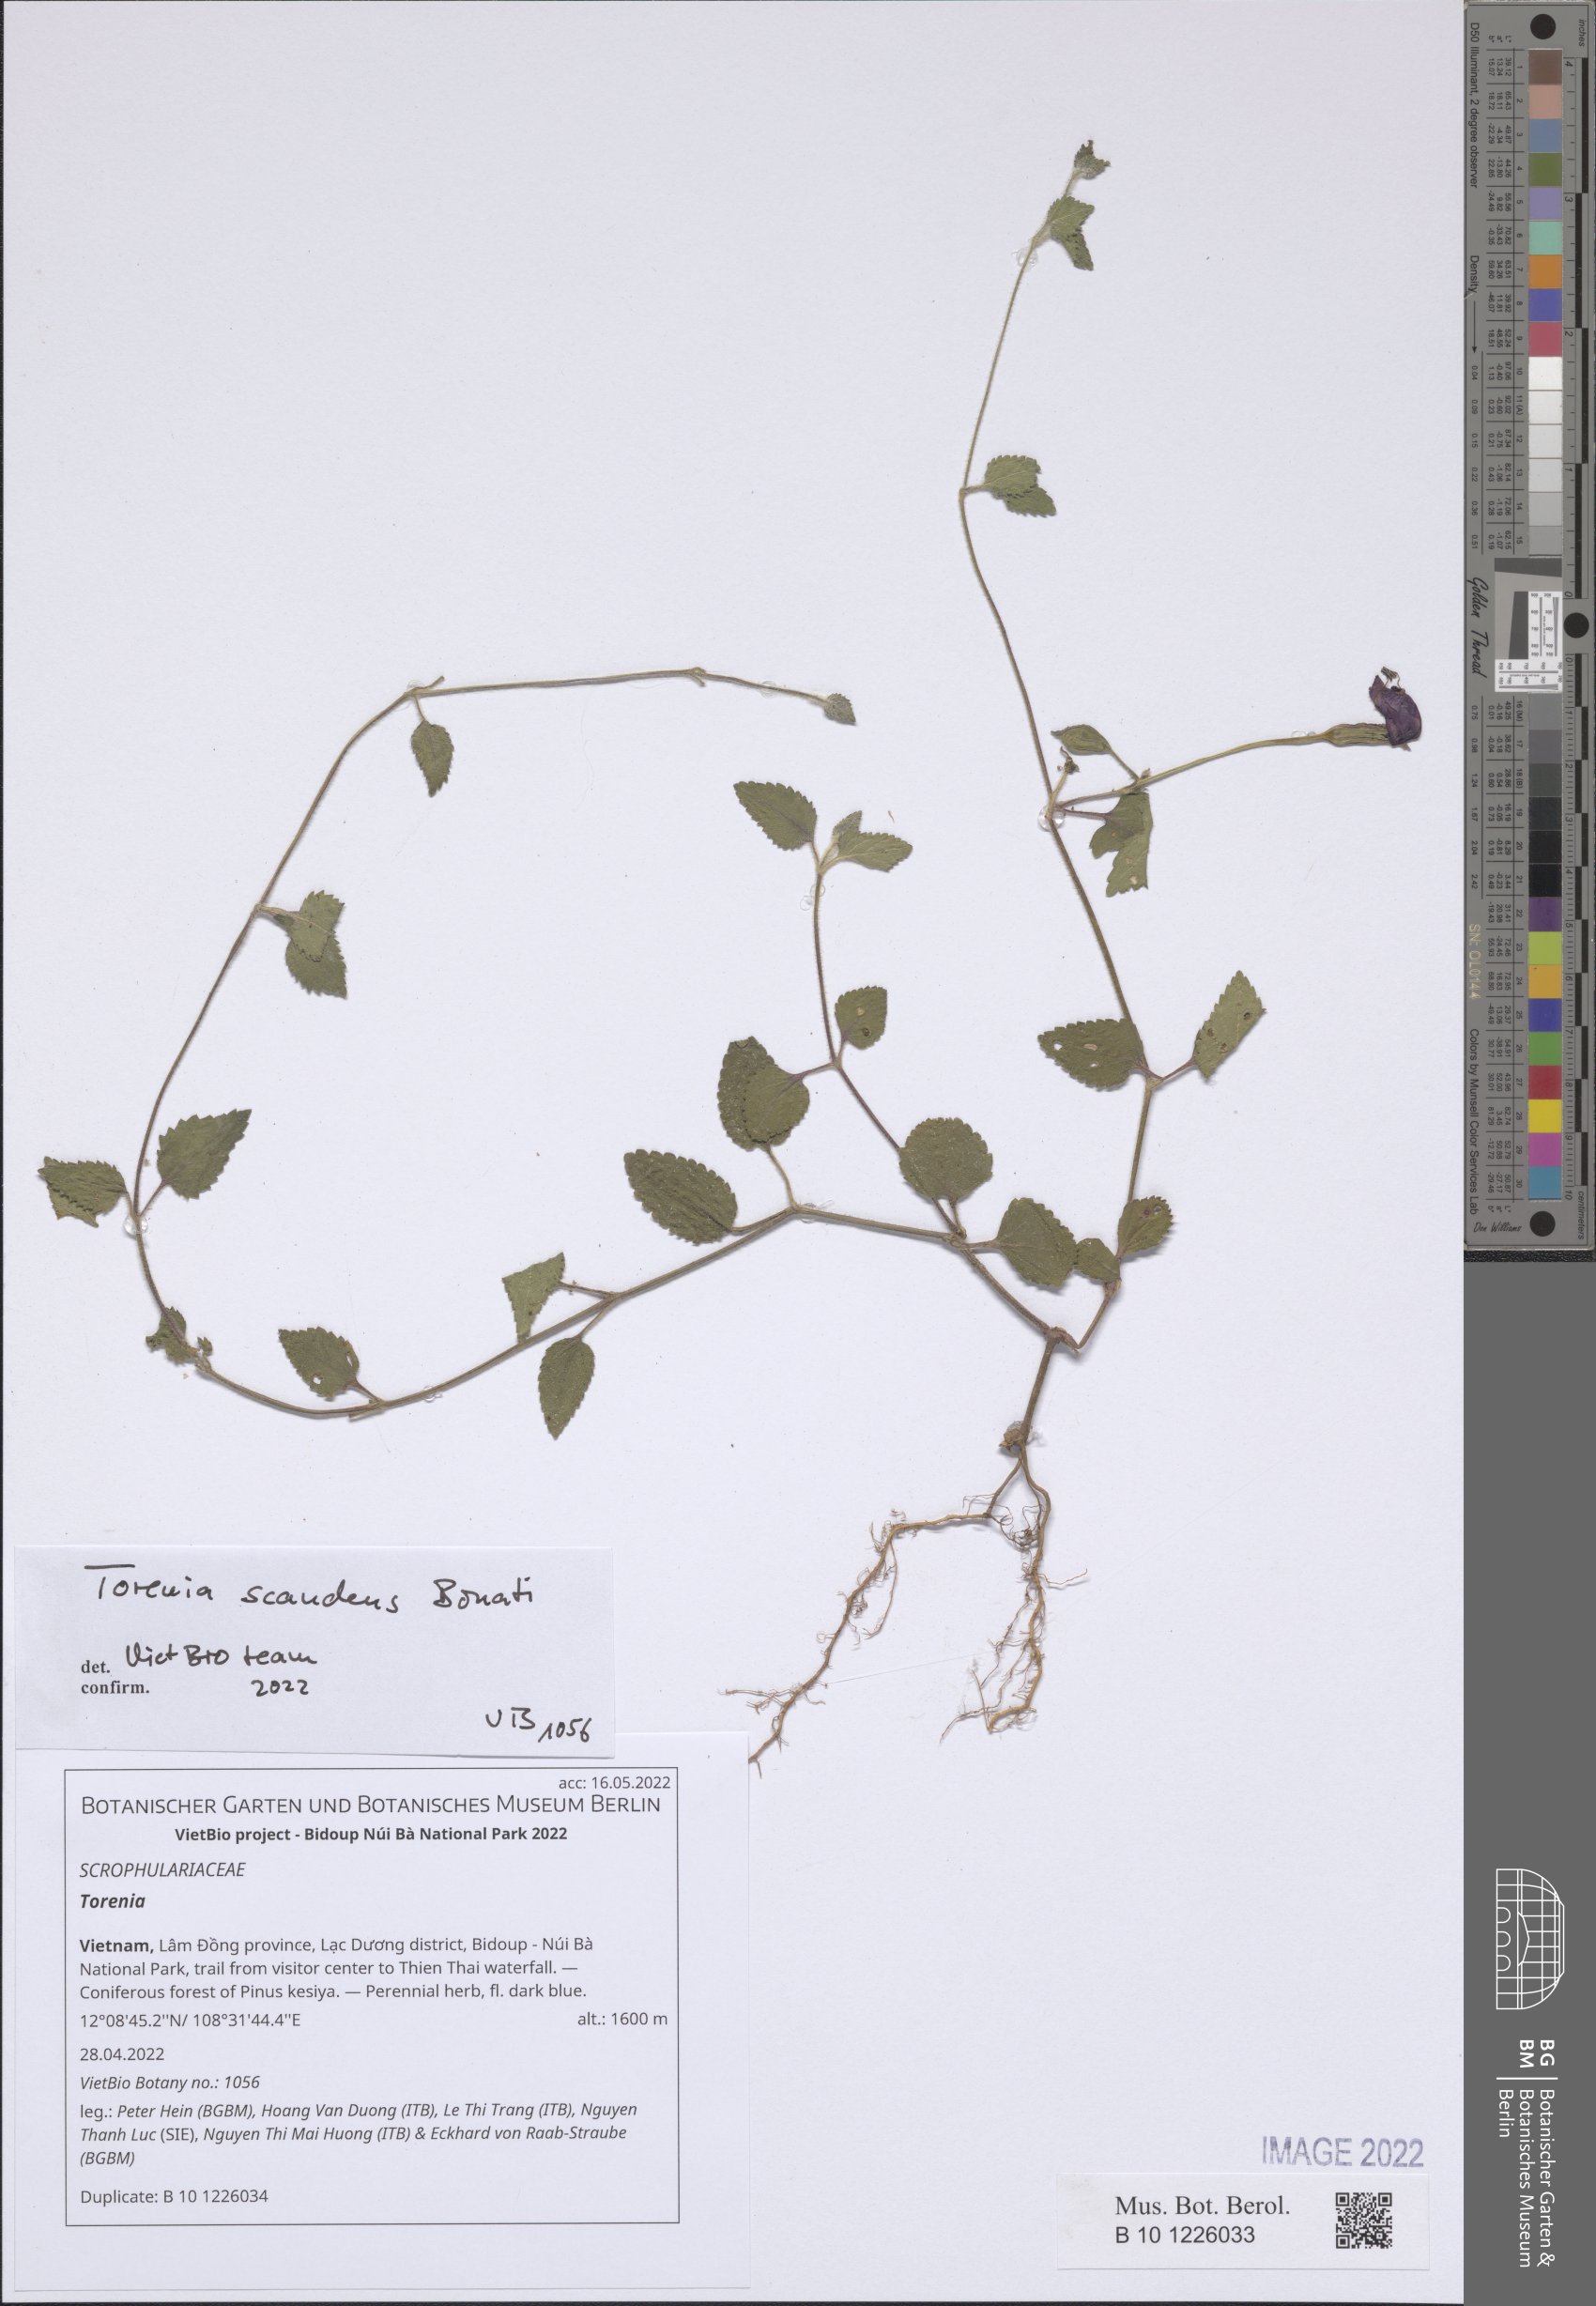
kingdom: Plantae
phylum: Tracheophyta
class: Magnoliopsida
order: Lamiales
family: Linderniaceae
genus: Torenia
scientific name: Torenia
